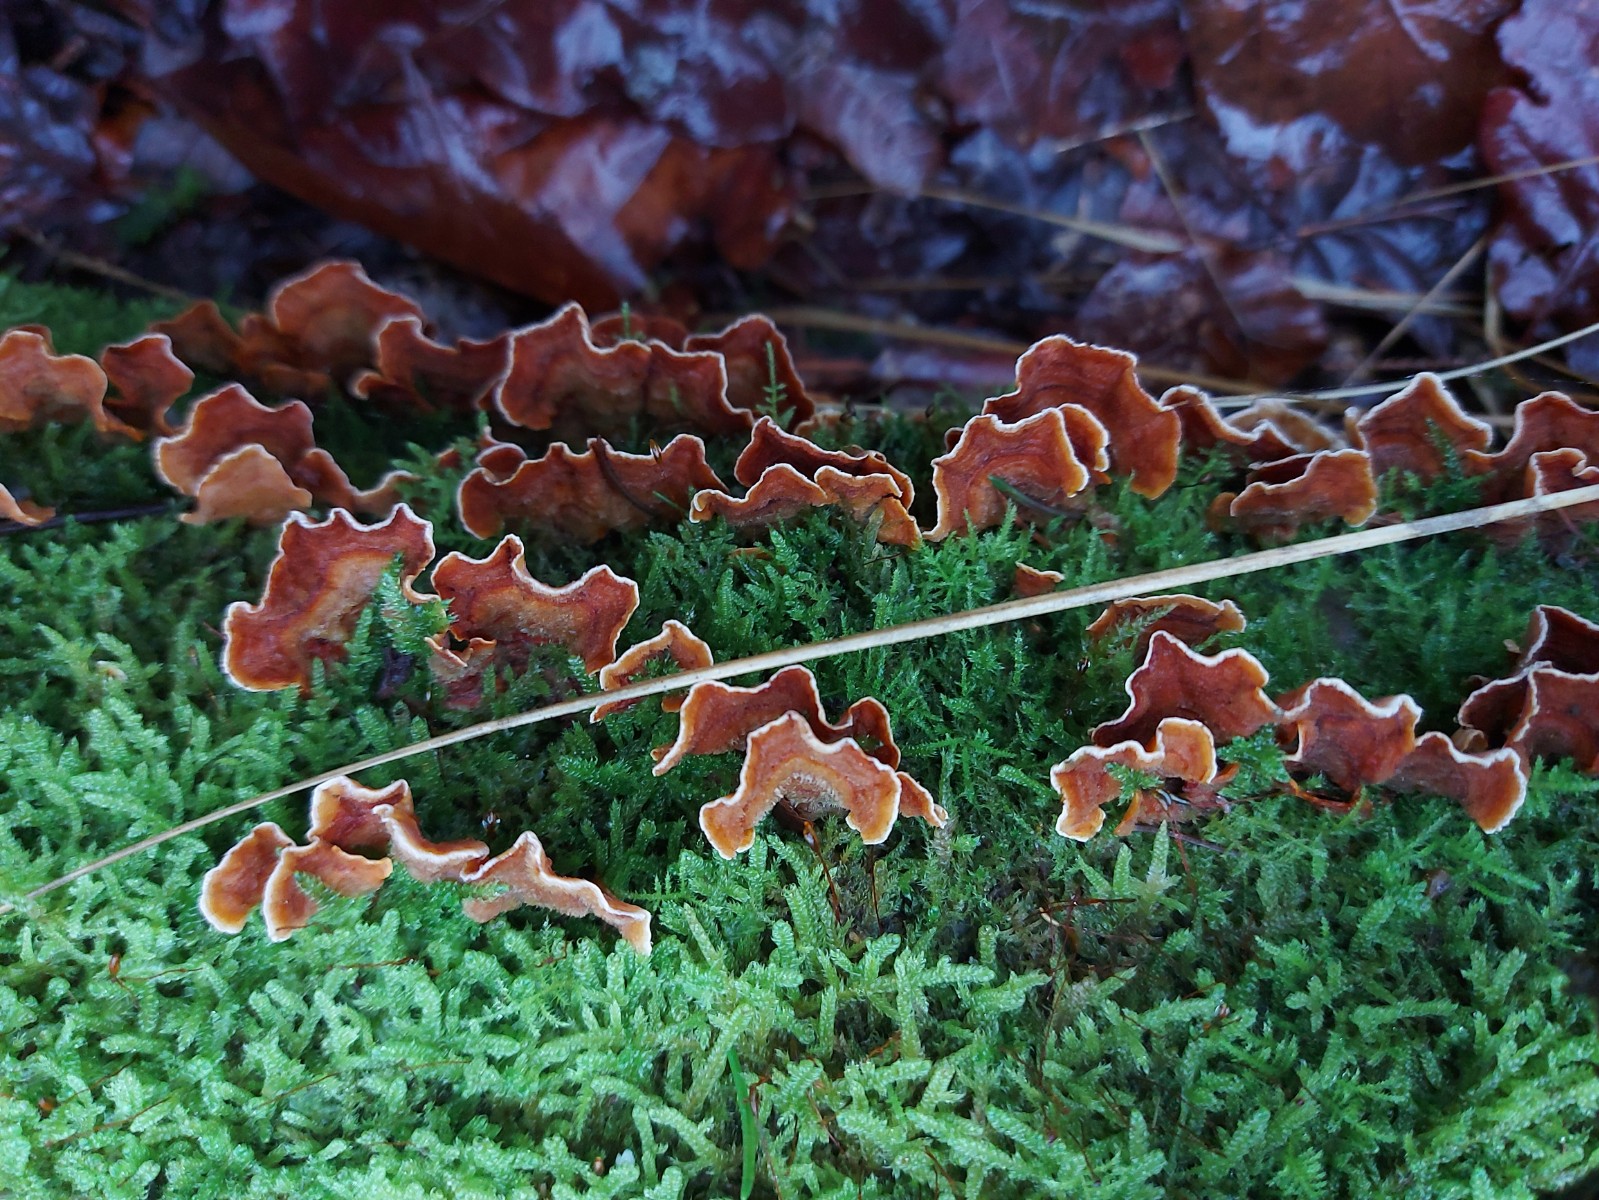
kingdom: Fungi
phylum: Basidiomycota
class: Agaricomycetes
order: Russulales
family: Stereaceae
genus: Stereum
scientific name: Stereum hirsutum
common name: håret lædersvamp
